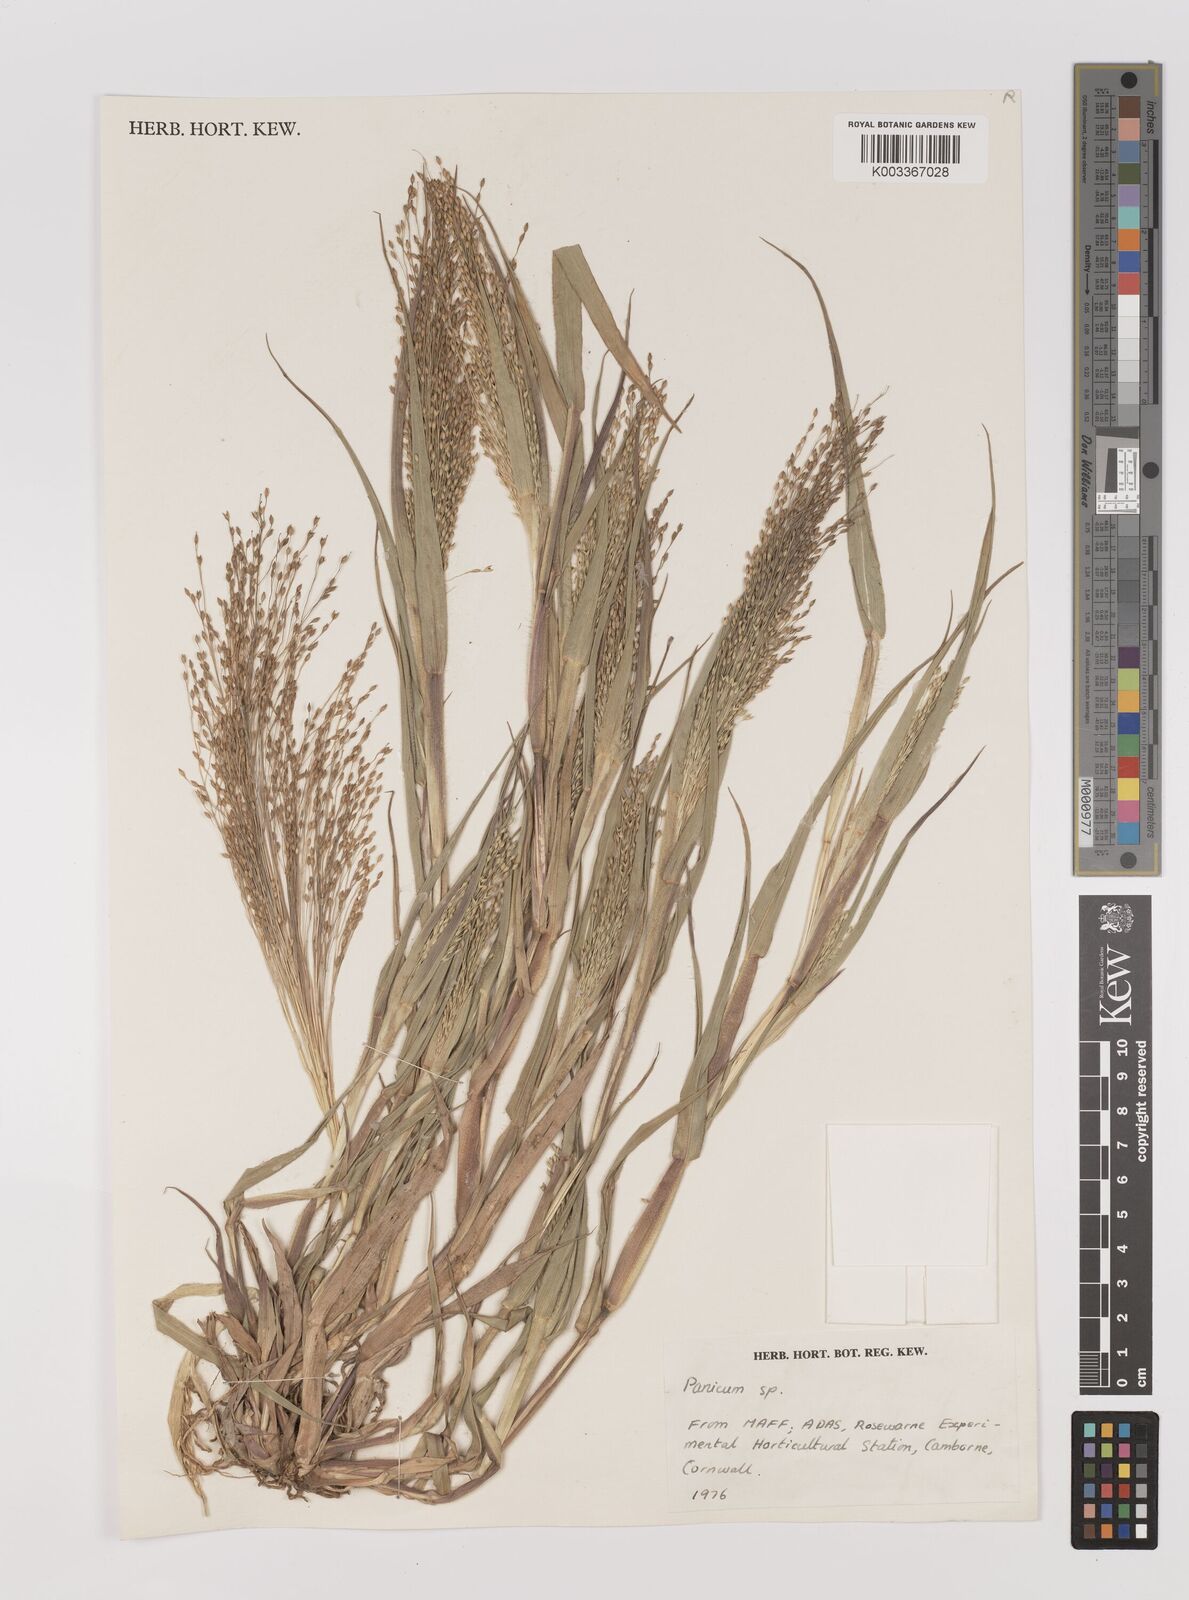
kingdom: Plantae
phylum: Tracheophyta
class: Liliopsida
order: Poales
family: Poaceae
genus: Panicum
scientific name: Panicum
